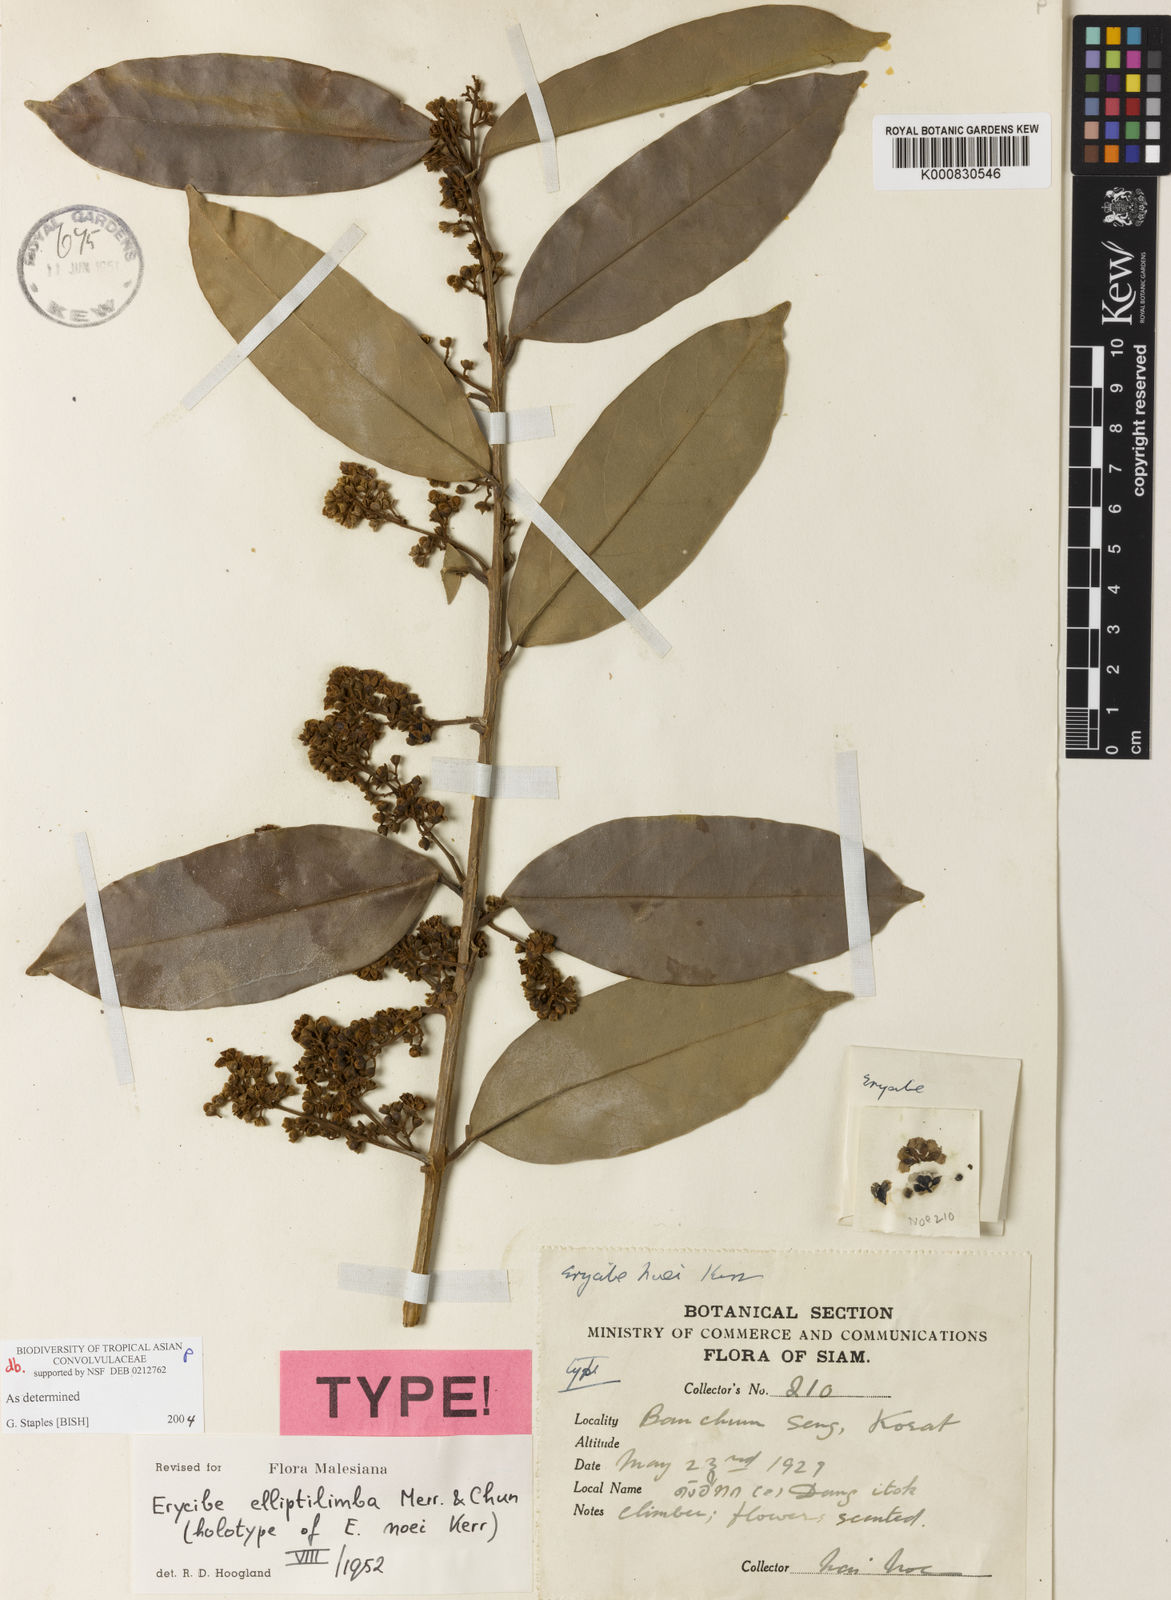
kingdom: Plantae
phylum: Tracheophyta
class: Magnoliopsida
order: Solanales
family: Convolvulaceae
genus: Erycibe
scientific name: Erycibe elliptilimba
